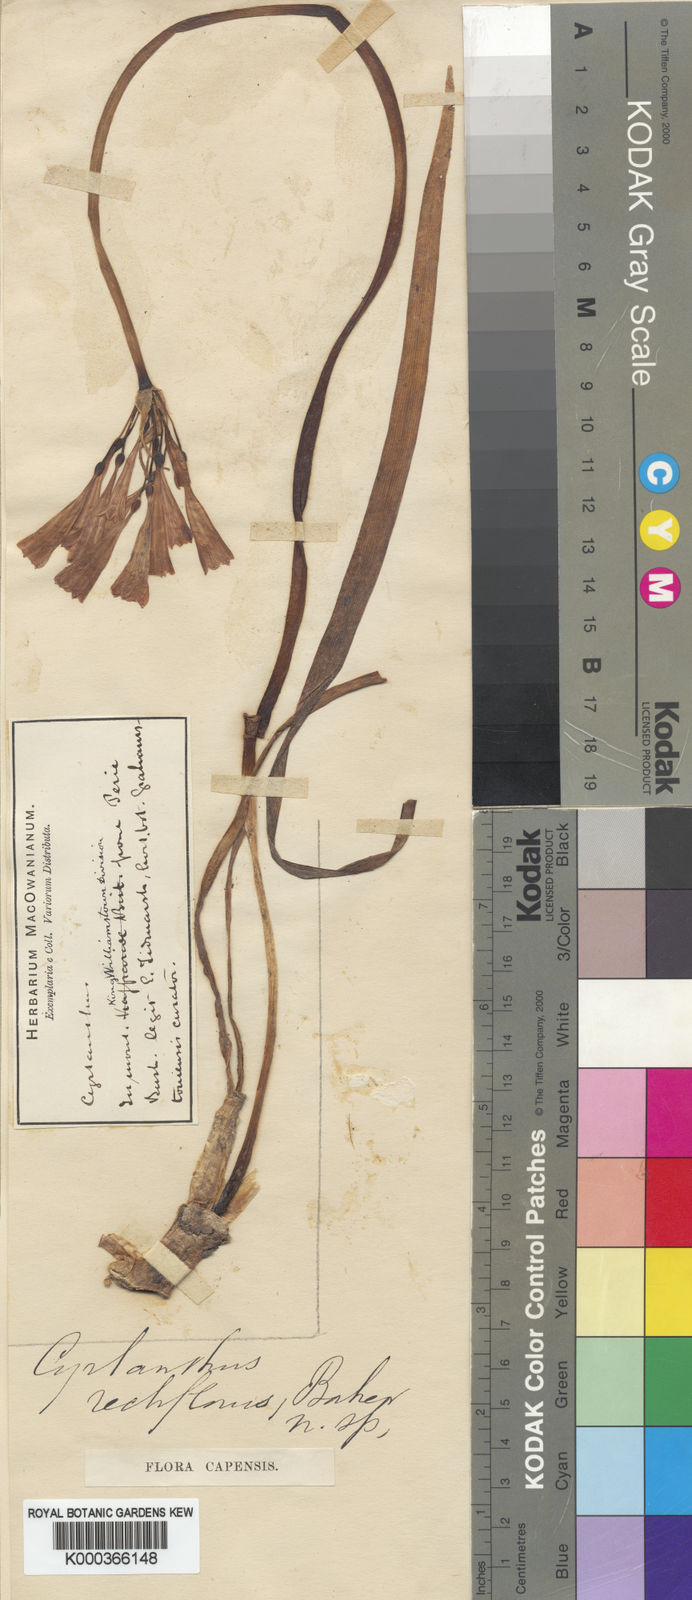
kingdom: Plantae
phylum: Tracheophyta
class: Liliopsida
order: Asparagales
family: Amaryllidaceae
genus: Cyrtanthus
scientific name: Cyrtanthus brachyscyphus
